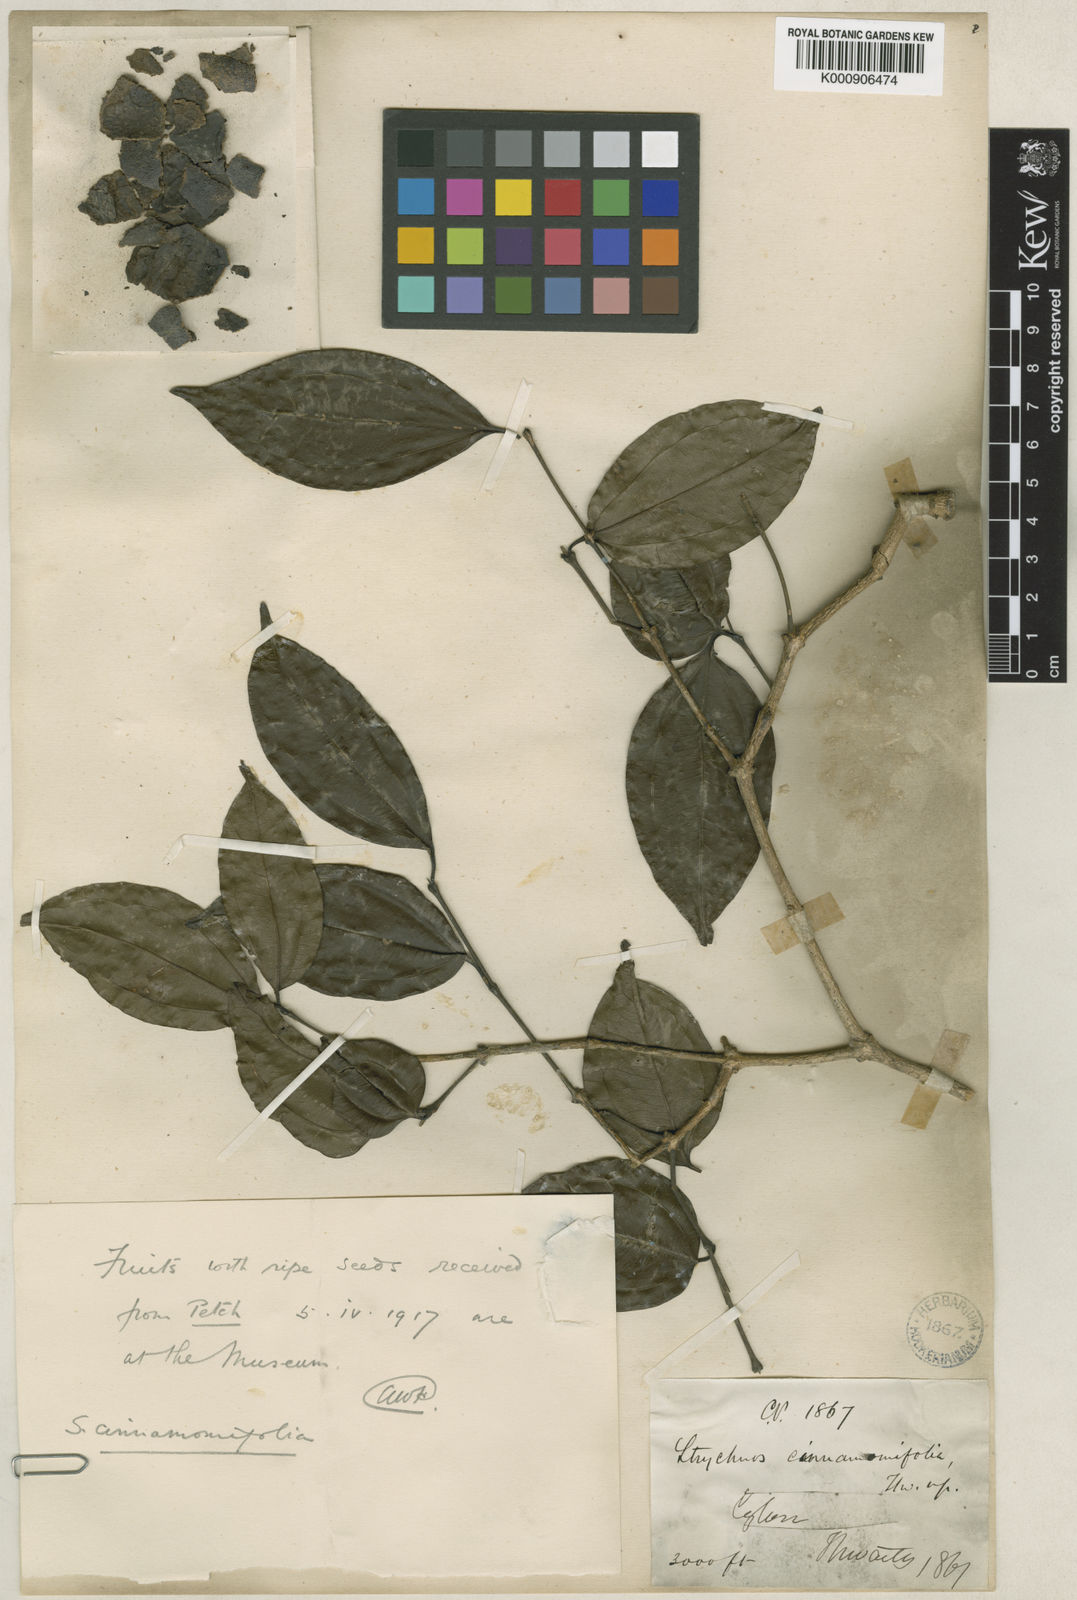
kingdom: Plantae
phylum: Tracheophyta
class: Magnoliopsida
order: Gentianales
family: Loganiaceae
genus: Strychnos
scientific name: Strychnos
